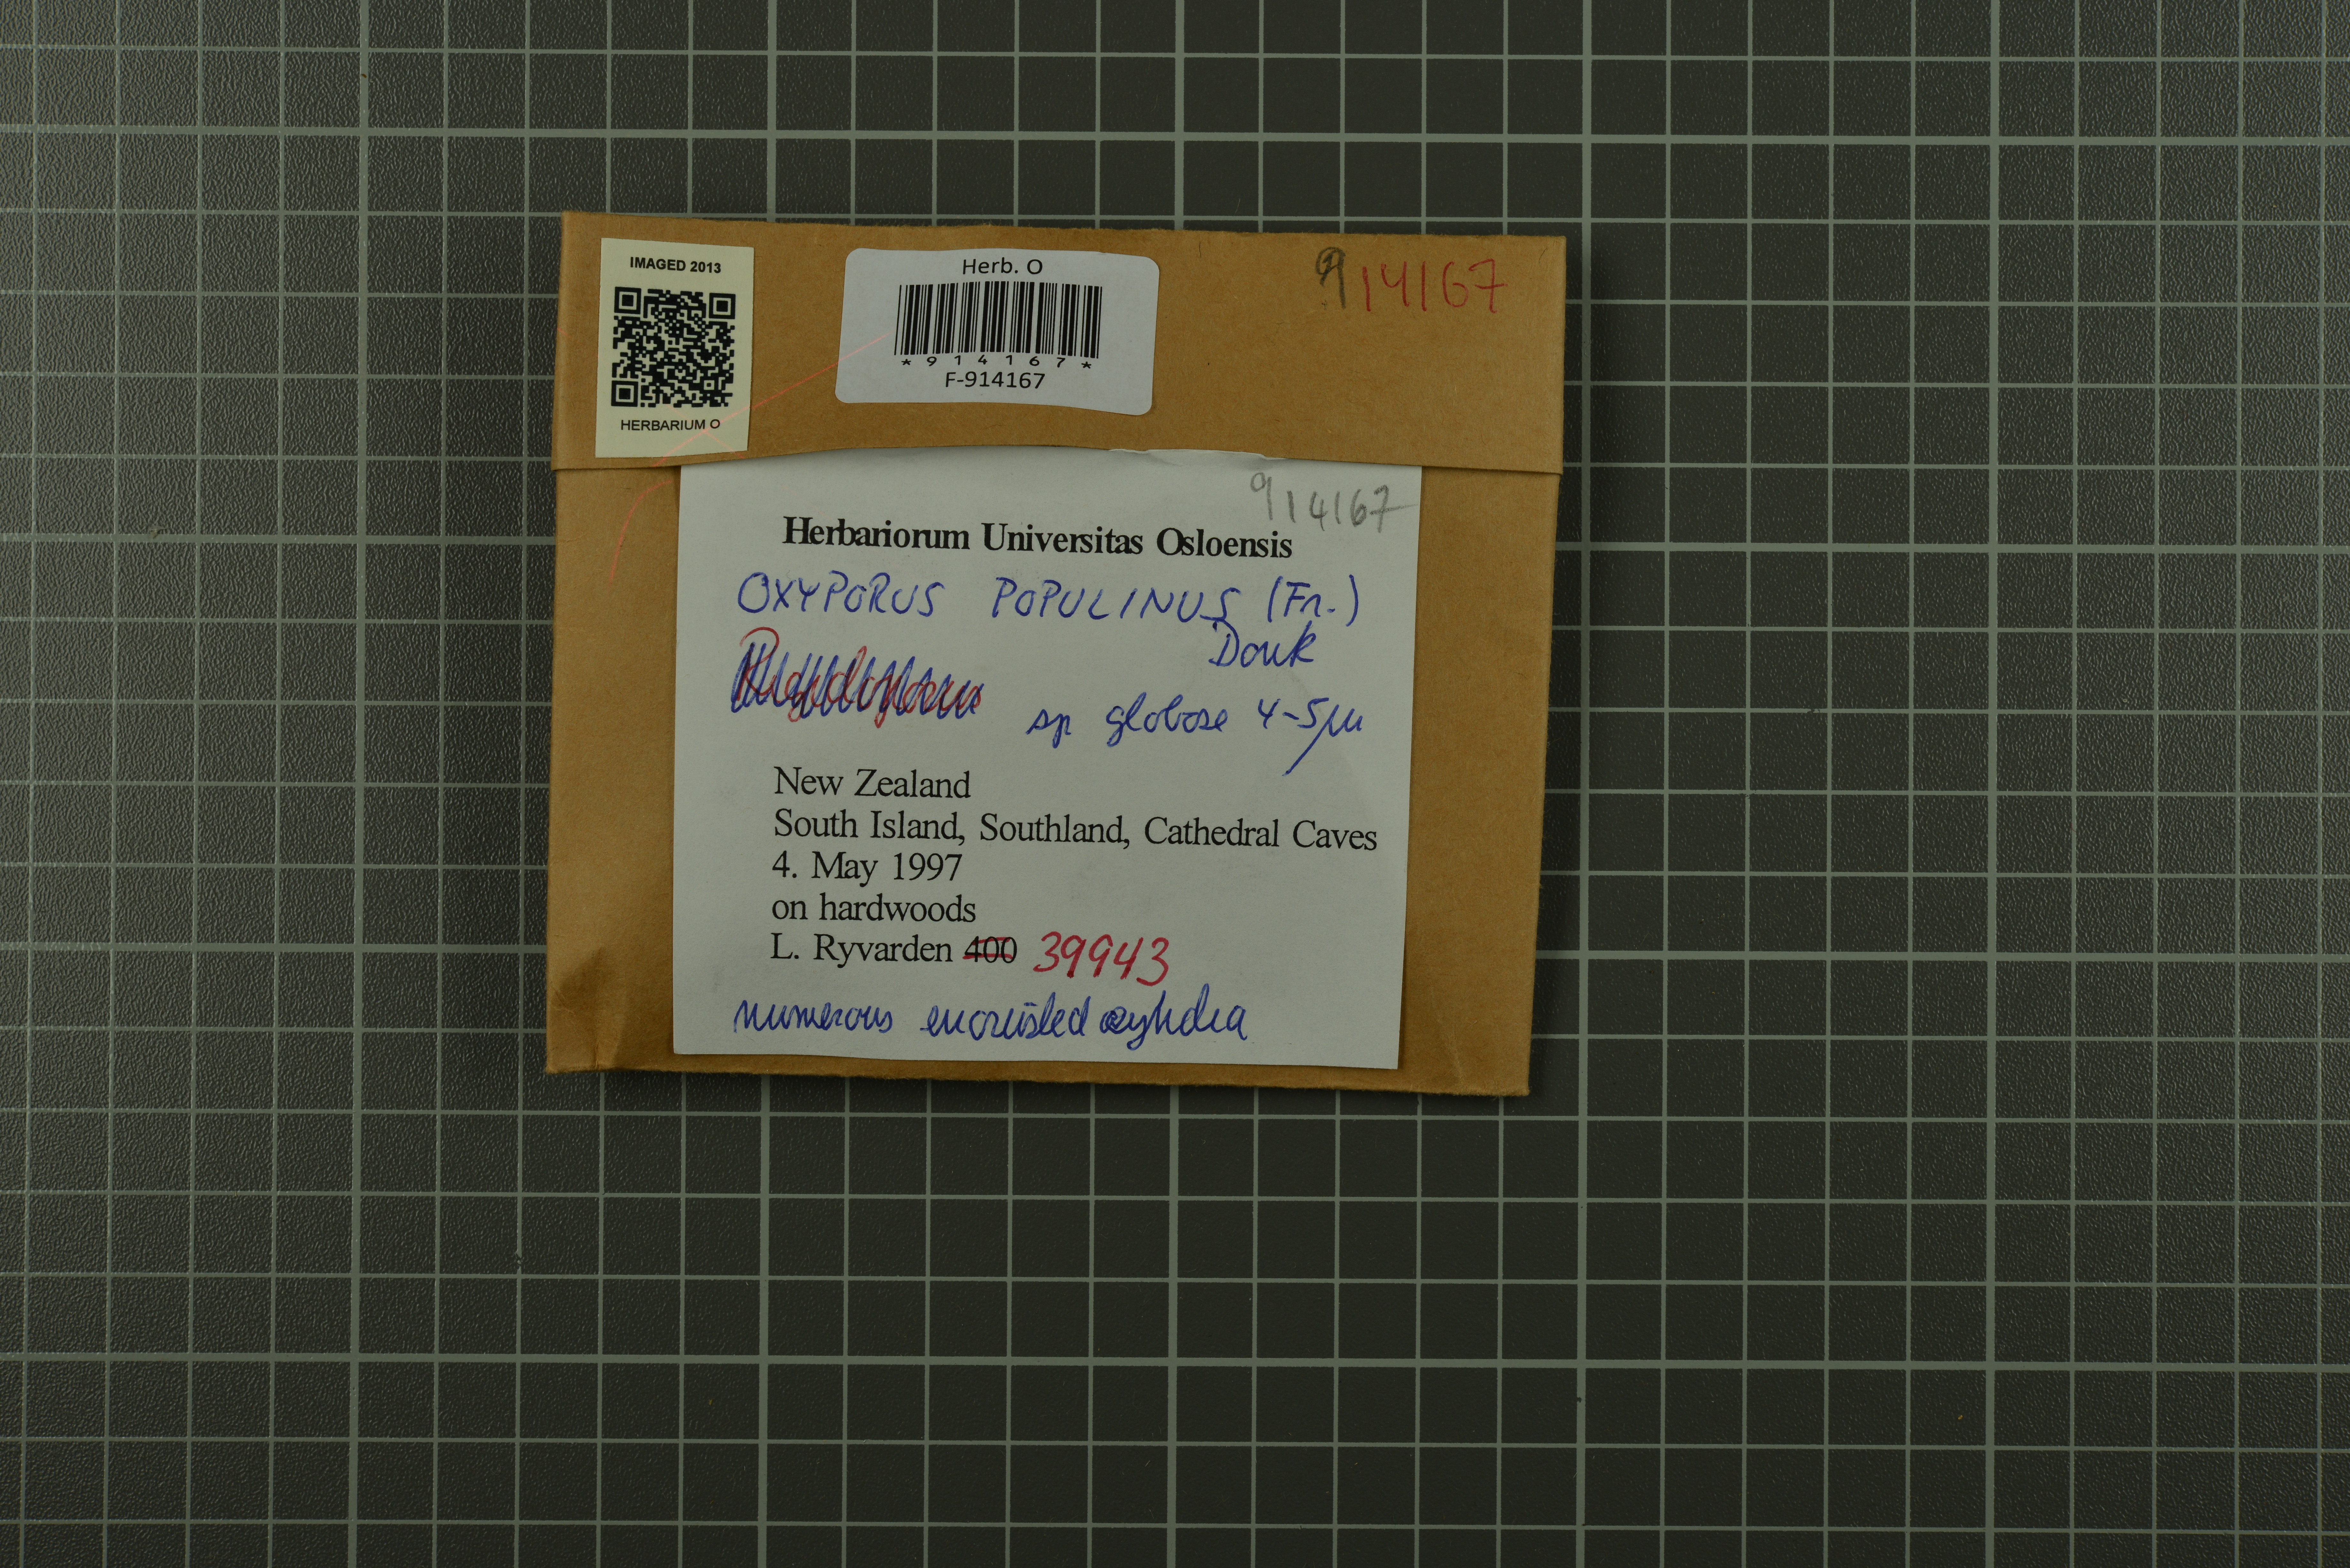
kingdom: Fungi
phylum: Basidiomycota
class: Agaricomycetes
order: Hymenochaetales
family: Oxyporaceae
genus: Oxyporus
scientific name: Oxyporus populinus
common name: Poplar bracket
